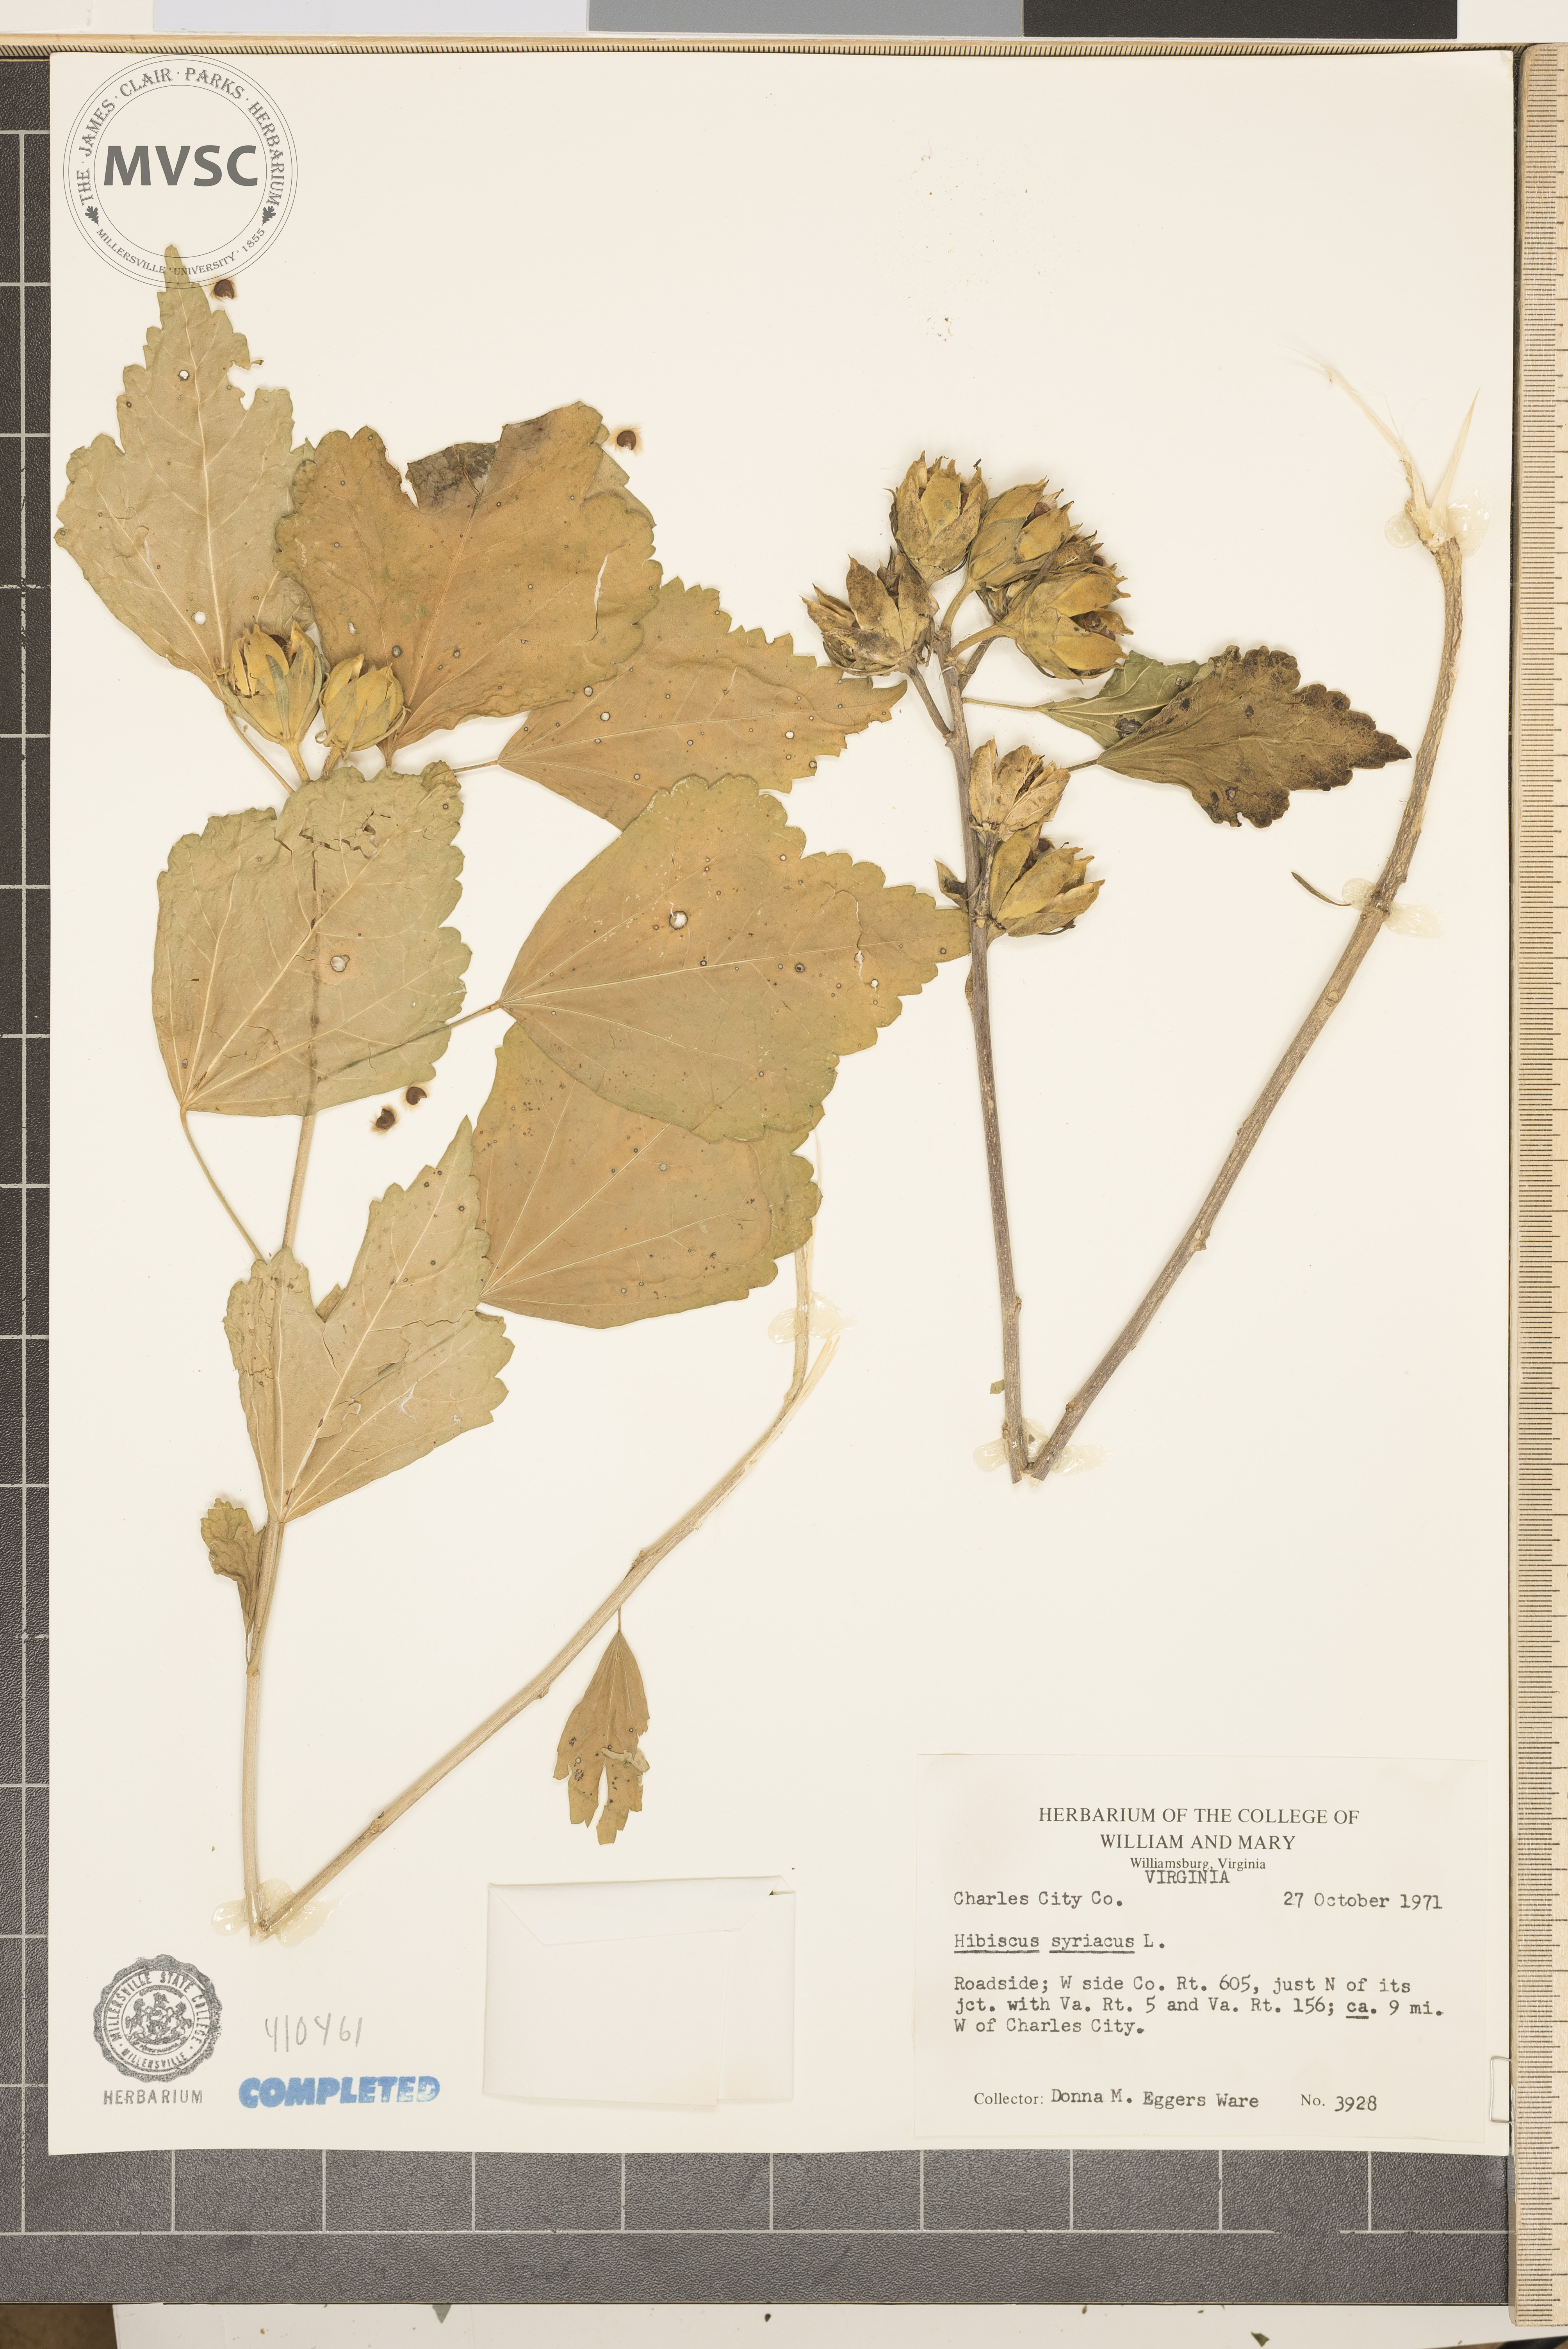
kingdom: Plantae
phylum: Tracheophyta
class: Magnoliopsida
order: Malvales
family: Malvaceae
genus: Hibiscus
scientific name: Hibiscus syriacus
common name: Rose-of-Sharon
